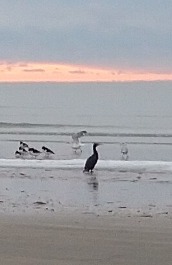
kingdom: Animalia
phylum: Chordata
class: Aves
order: Suliformes
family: Phalacrocoracidae
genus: Phalacrocorax
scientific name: Phalacrocorax carbo
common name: Skarv
